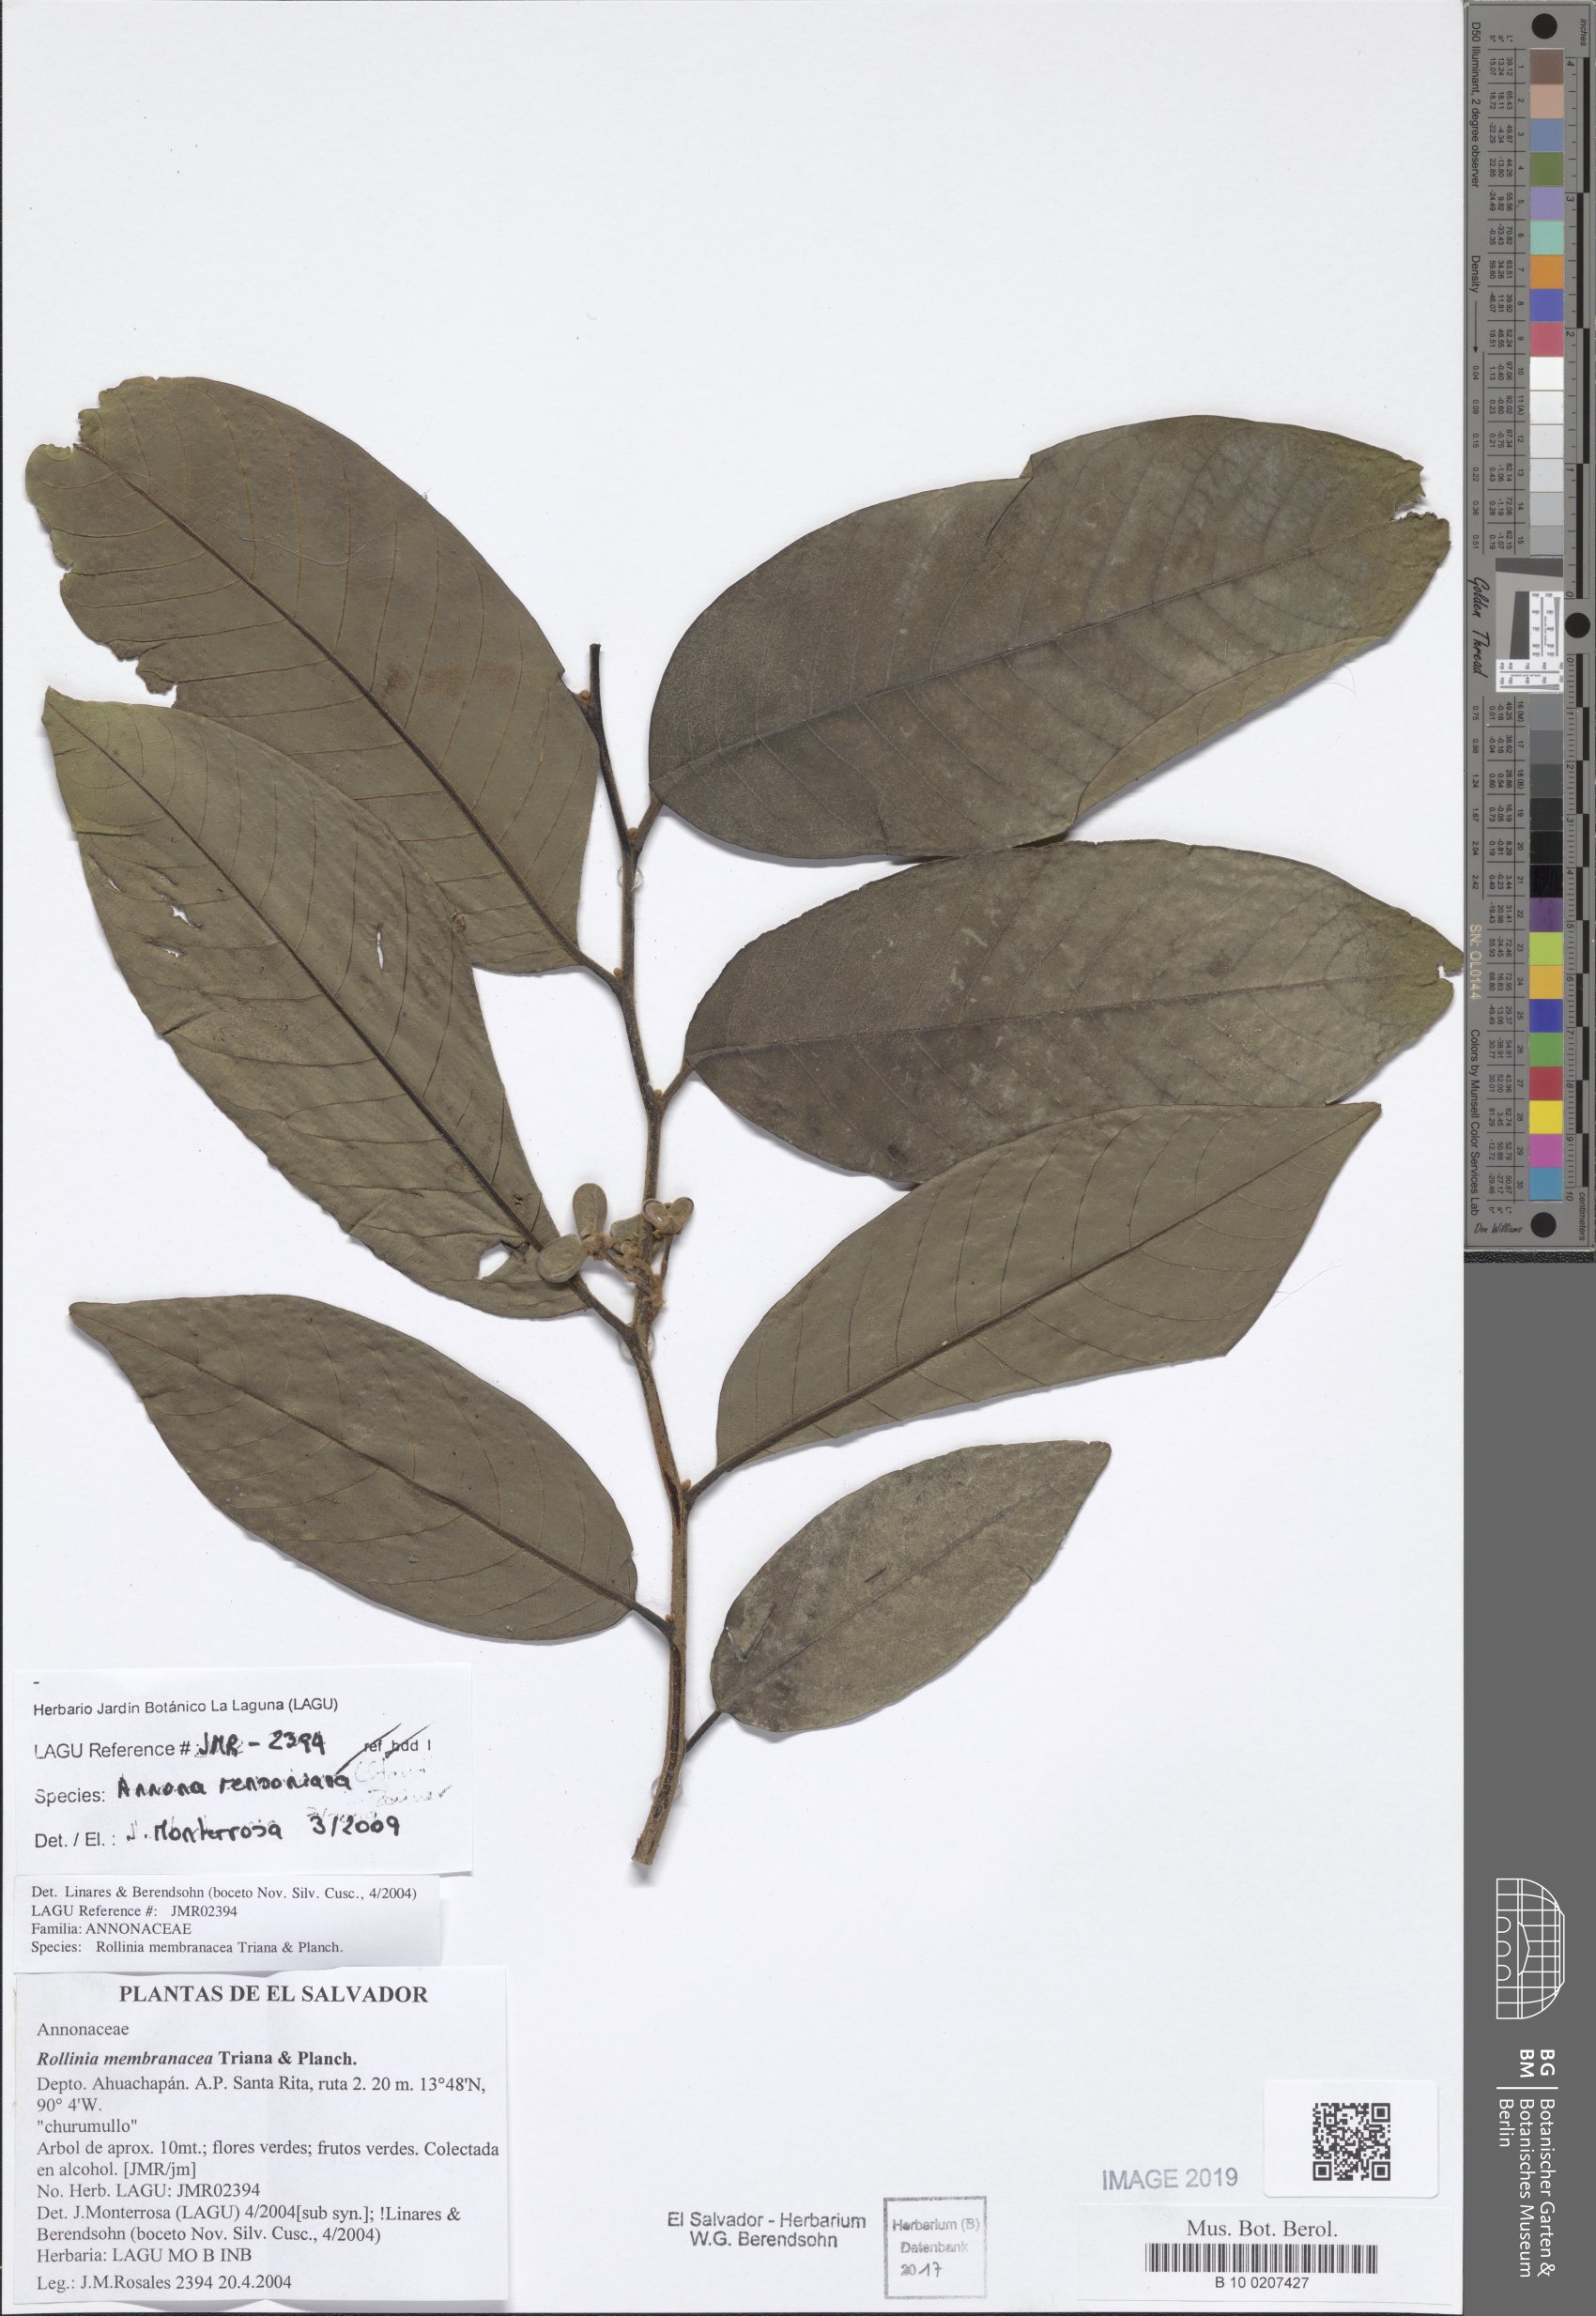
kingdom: Plantae
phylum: Tracheophyta
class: Magnoliopsida
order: Magnoliales
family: Annonaceae
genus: Annona
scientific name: Annona rensoniana
